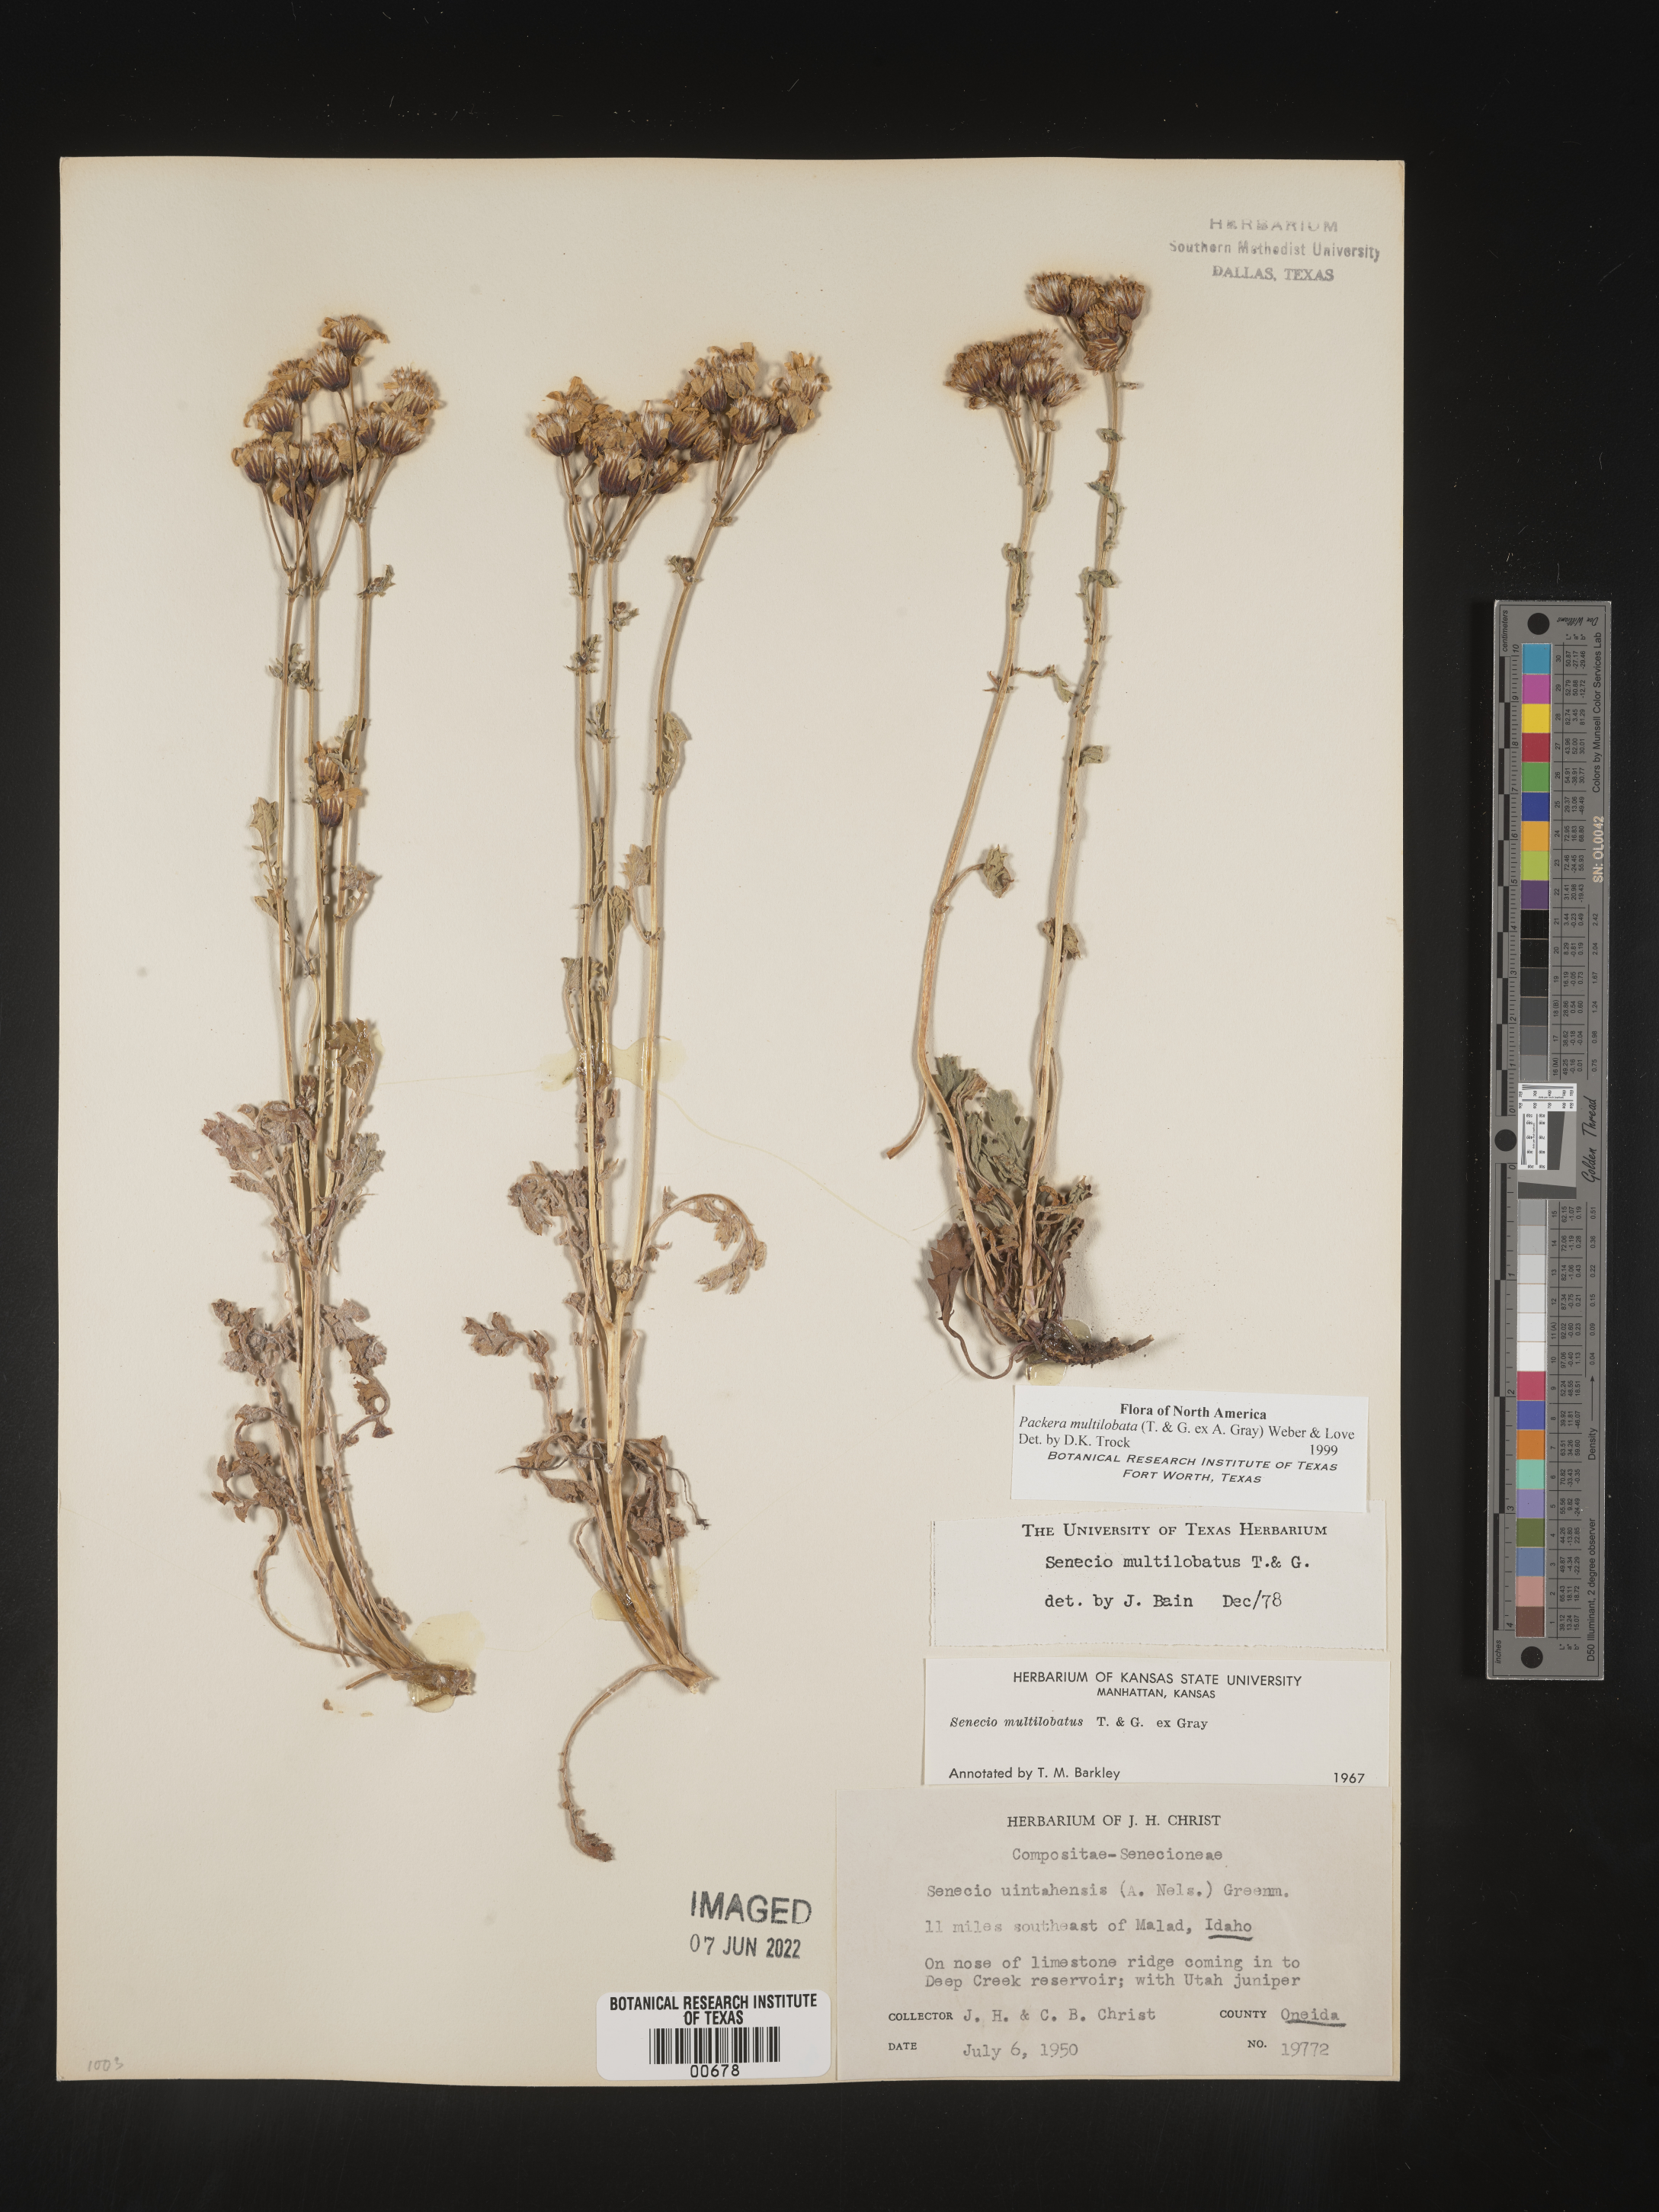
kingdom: Plantae
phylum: Tracheophyta
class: Magnoliopsida
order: Asterales
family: Asteraceae
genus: Packera
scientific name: Packera multilobata
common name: Lobe-leaf groundsel
